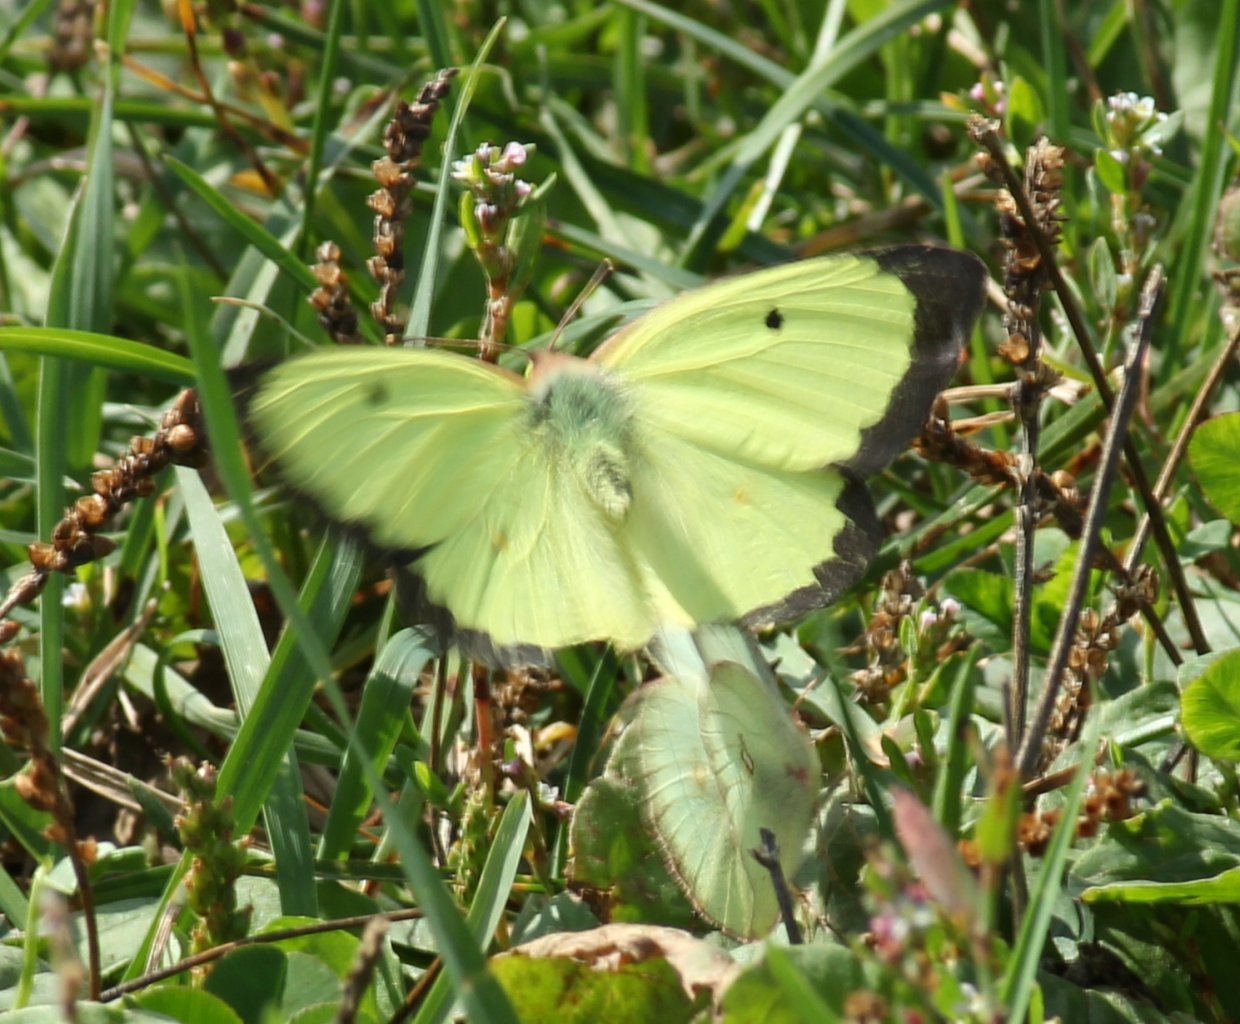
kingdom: Animalia
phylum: Arthropoda
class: Insecta
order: Lepidoptera
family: Pieridae
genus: Colias
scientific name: Colias philodice
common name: Clouded Sulphur
